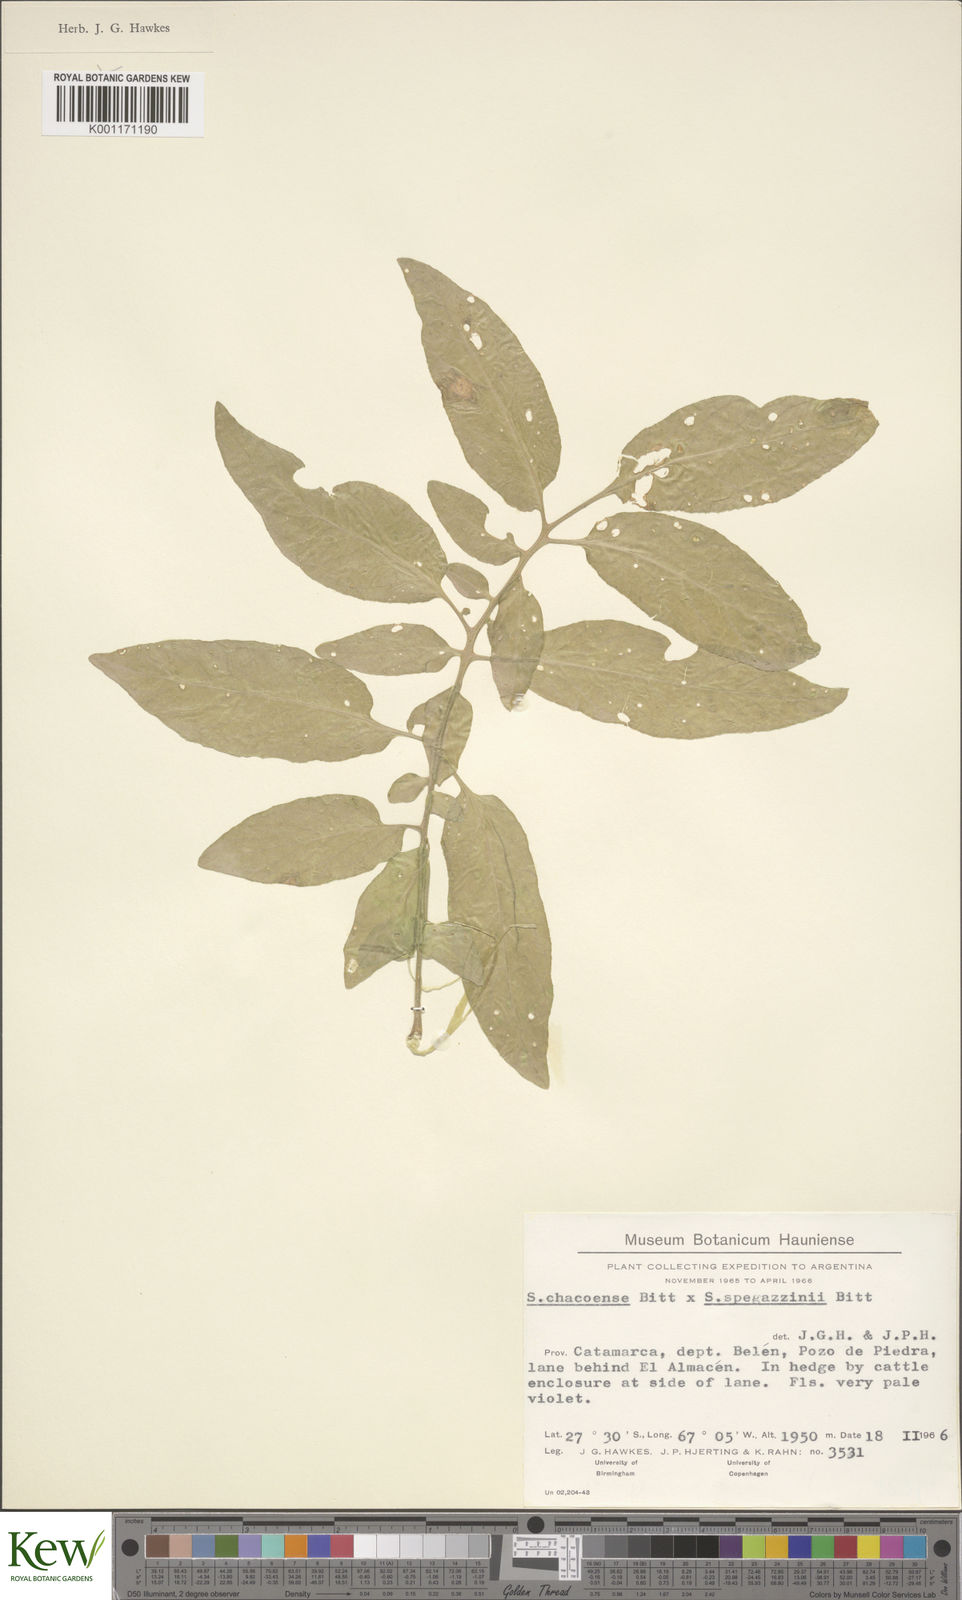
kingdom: Plantae
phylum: Tracheophyta
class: Magnoliopsida
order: Solanales
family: Solanaceae
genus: Solanum
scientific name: Solanum chacoense
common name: Chaco potato
